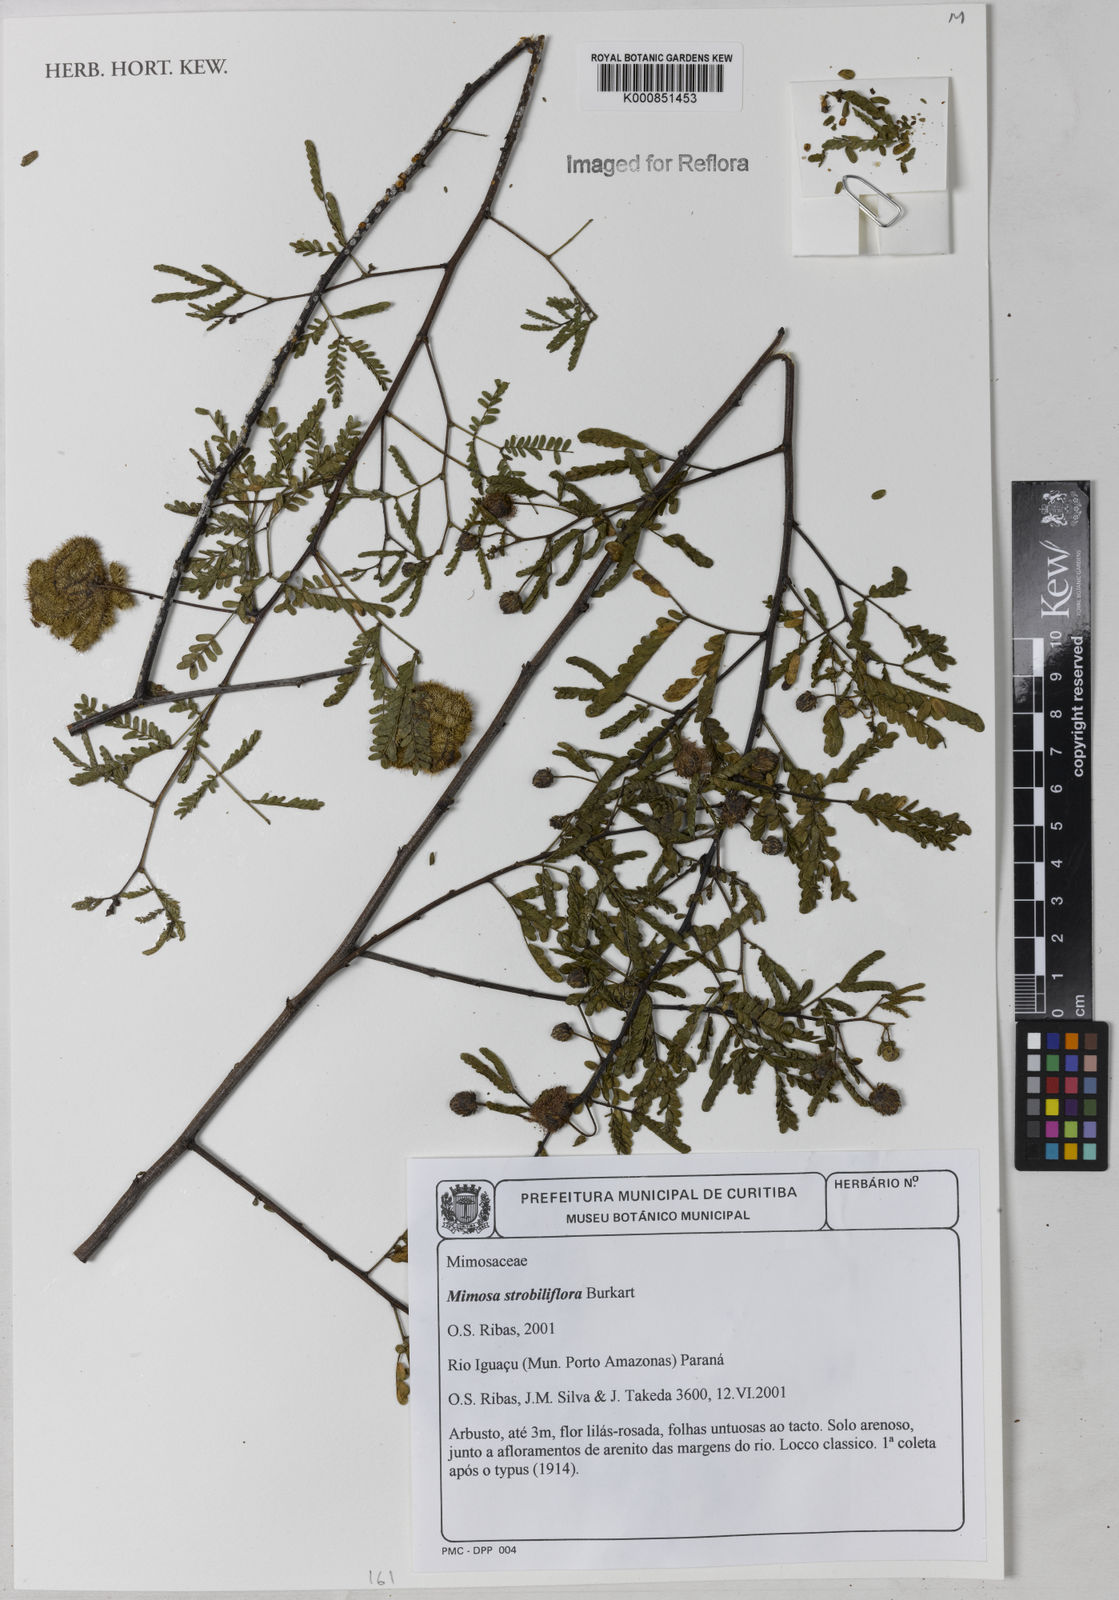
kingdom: Plantae
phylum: Tracheophyta
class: Magnoliopsida
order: Fabales
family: Fabaceae
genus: Mimosa
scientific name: Mimosa strobiliflora
